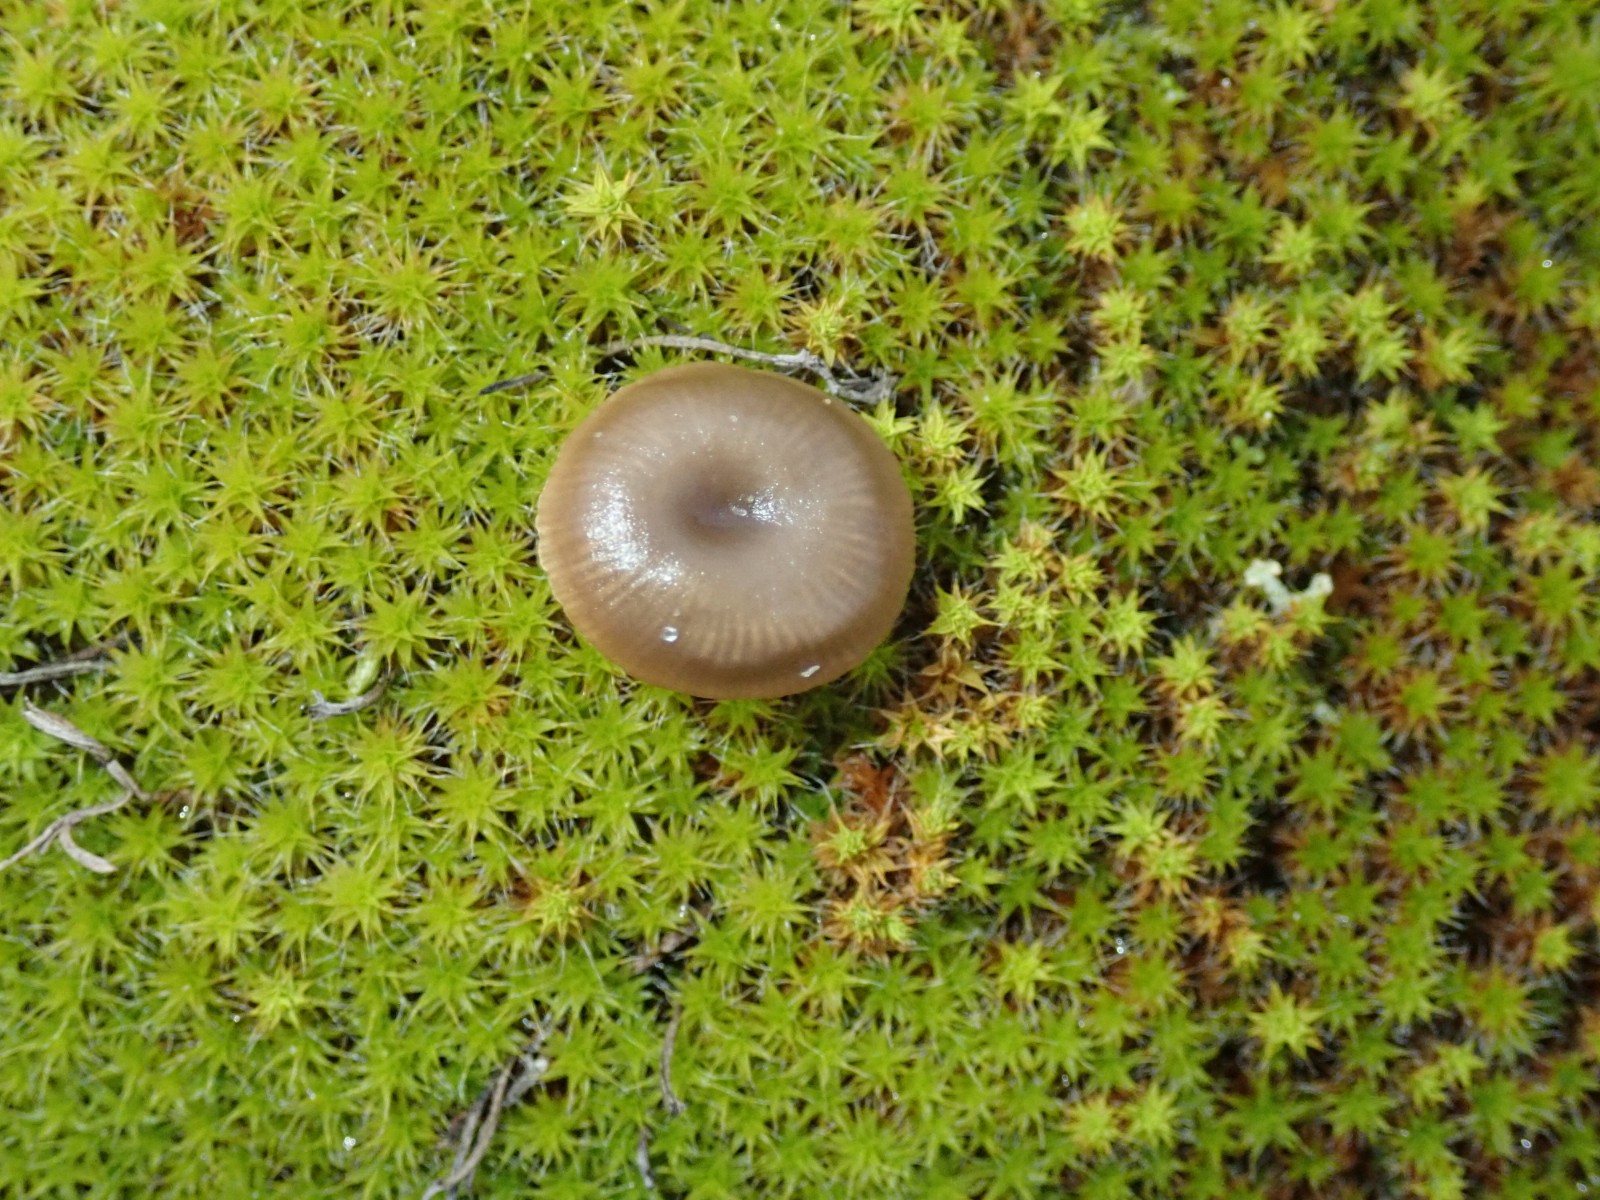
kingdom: Fungi
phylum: Basidiomycota
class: Agaricomycetes
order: Agaricales
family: Tricholomataceae
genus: Clitocybe
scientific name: Clitocybe barbularum
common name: klit-tragthat
